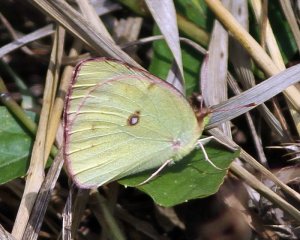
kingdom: Animalia
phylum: Arthropoda
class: Insecta
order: Lepidoptera
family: Pieridae
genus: Colias
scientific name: Colias philodice
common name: Clouded Sulphur
